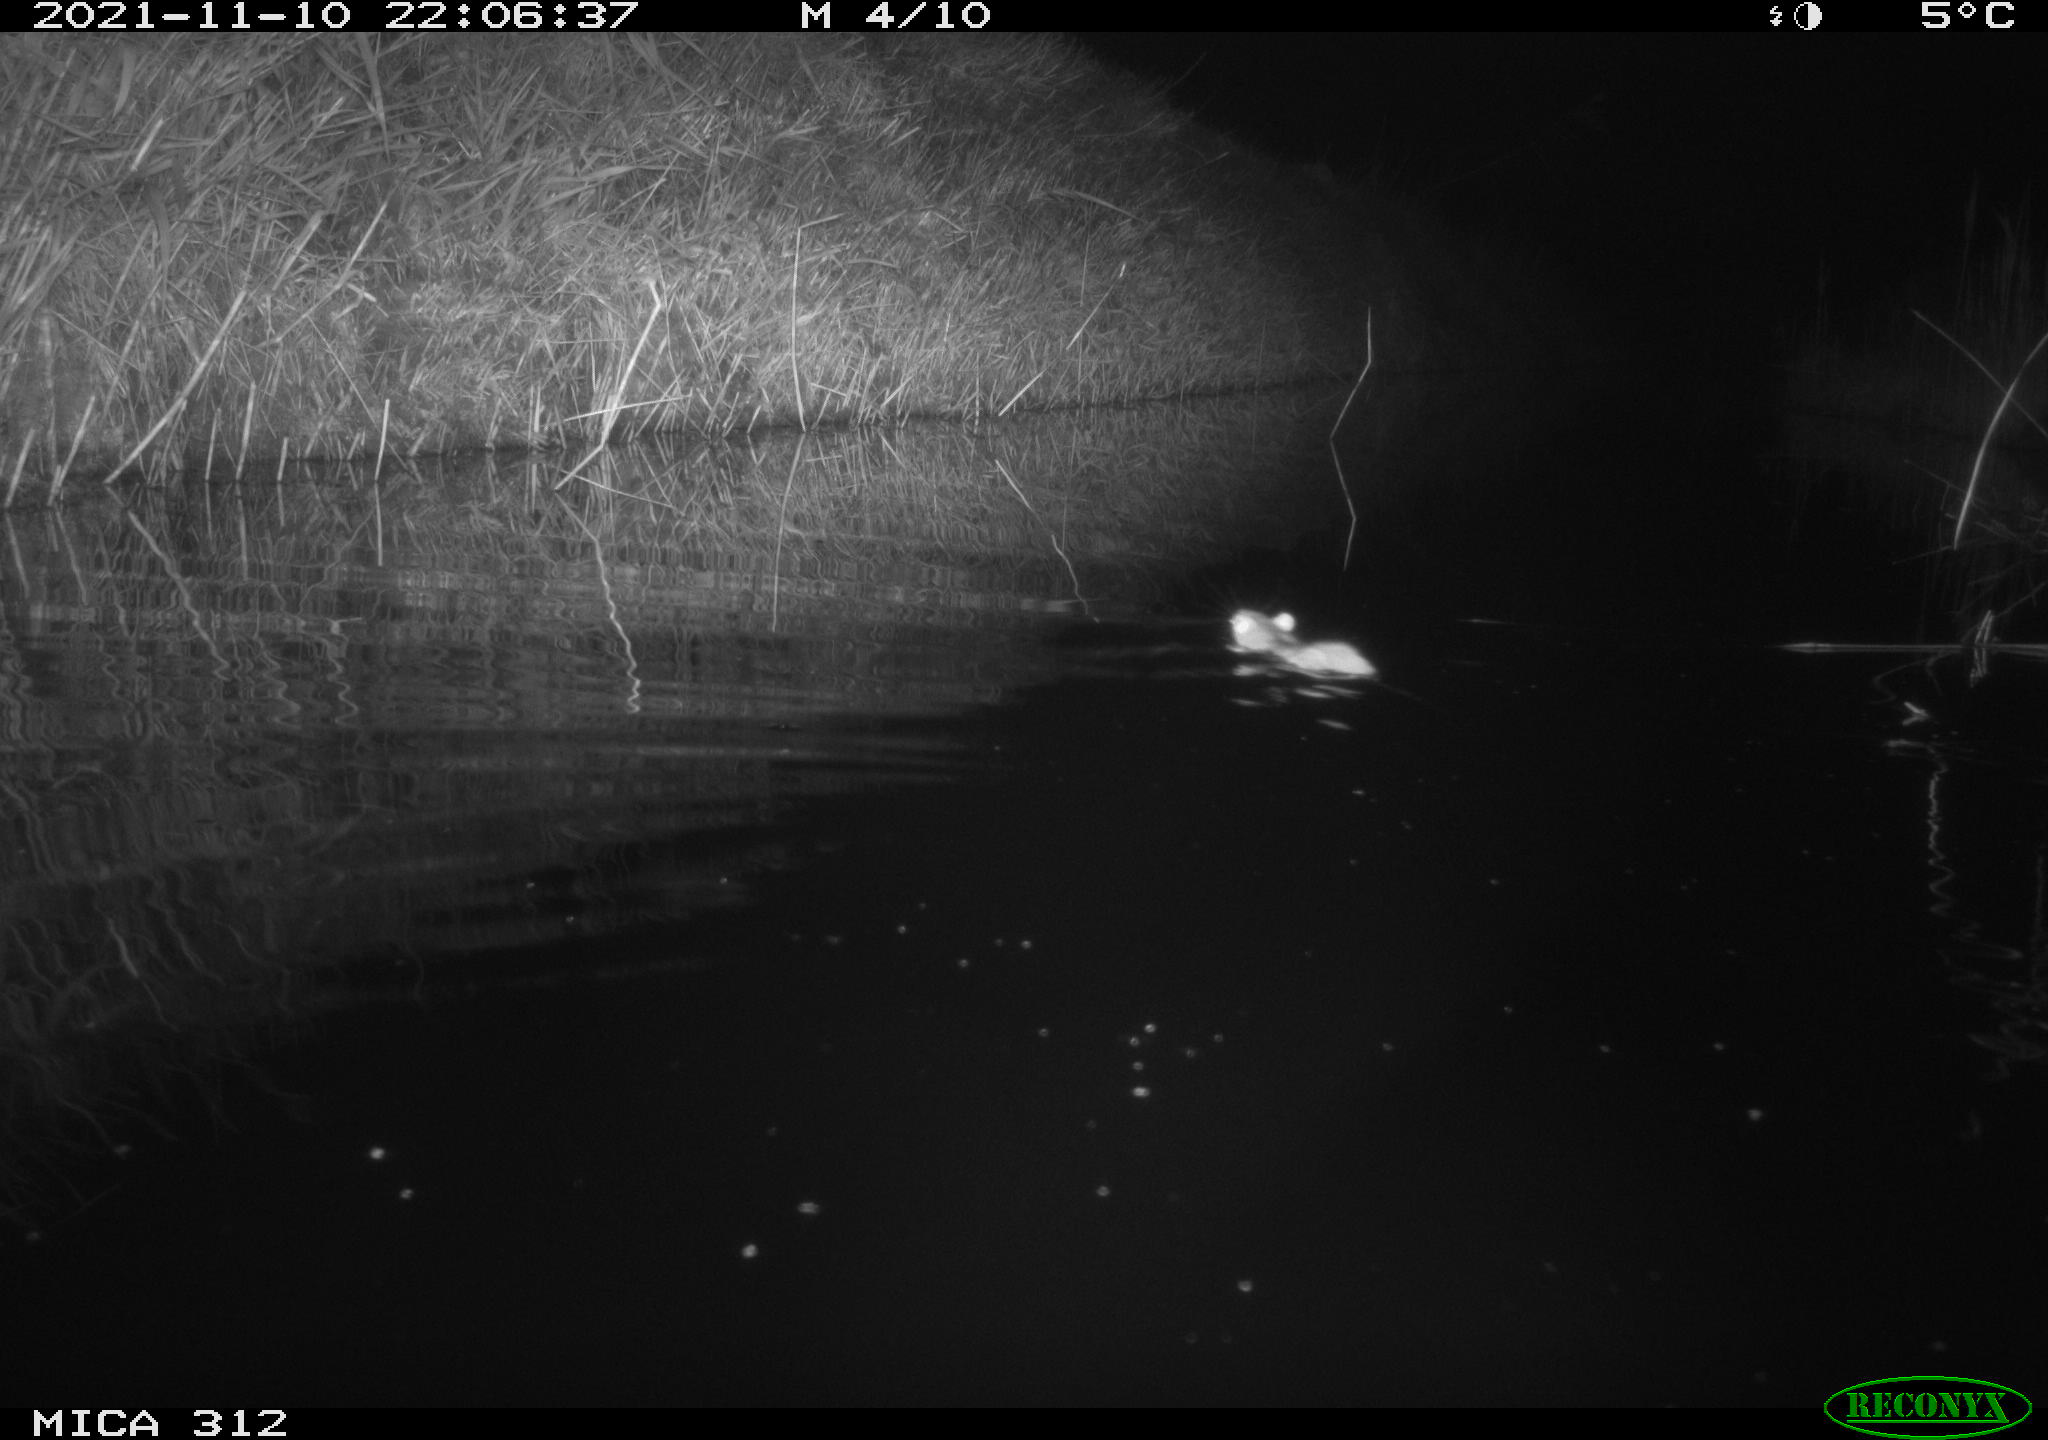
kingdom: Animalia
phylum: Chordata
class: Mammalia
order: Rodentia
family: Muridae
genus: Rattus
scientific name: Rattus norvegicus
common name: Brown rat
